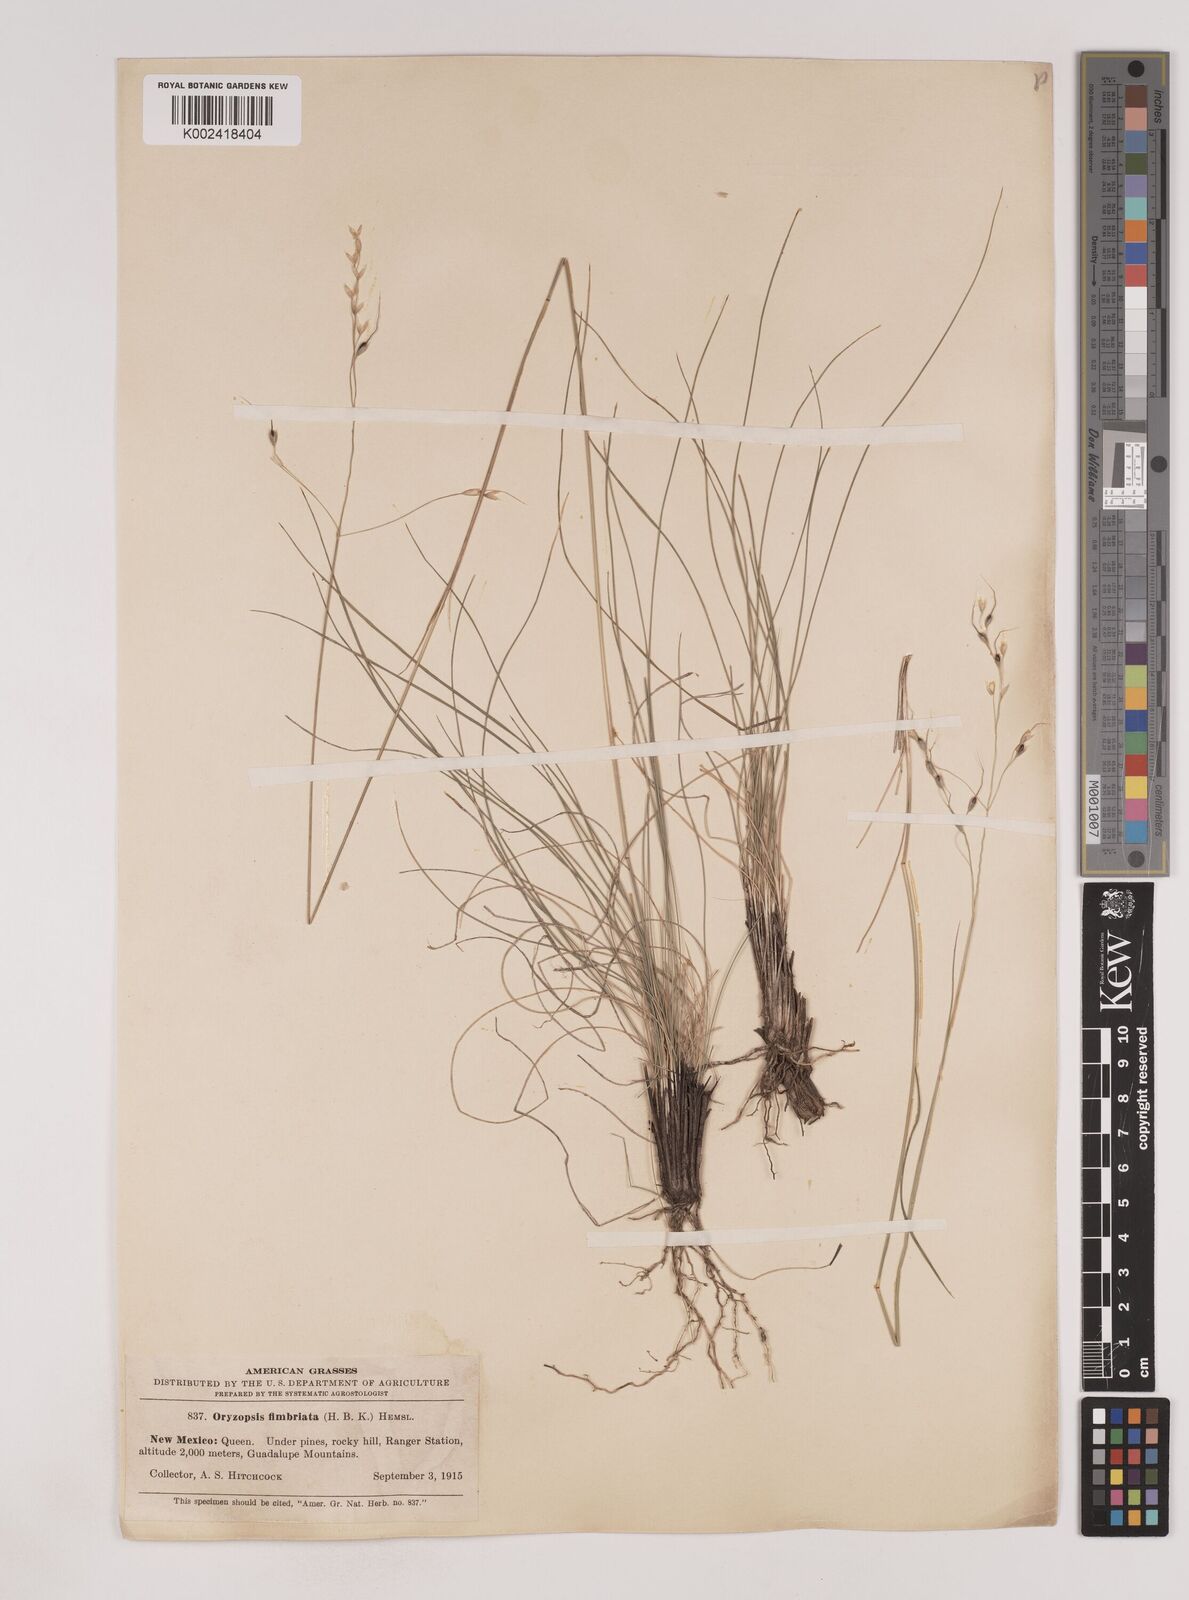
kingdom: Plantae
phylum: Tracheophyta
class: Liliopsida
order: Poales
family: Poaceae
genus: Piptochaetium
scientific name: Piptochaetium fimbriatum
